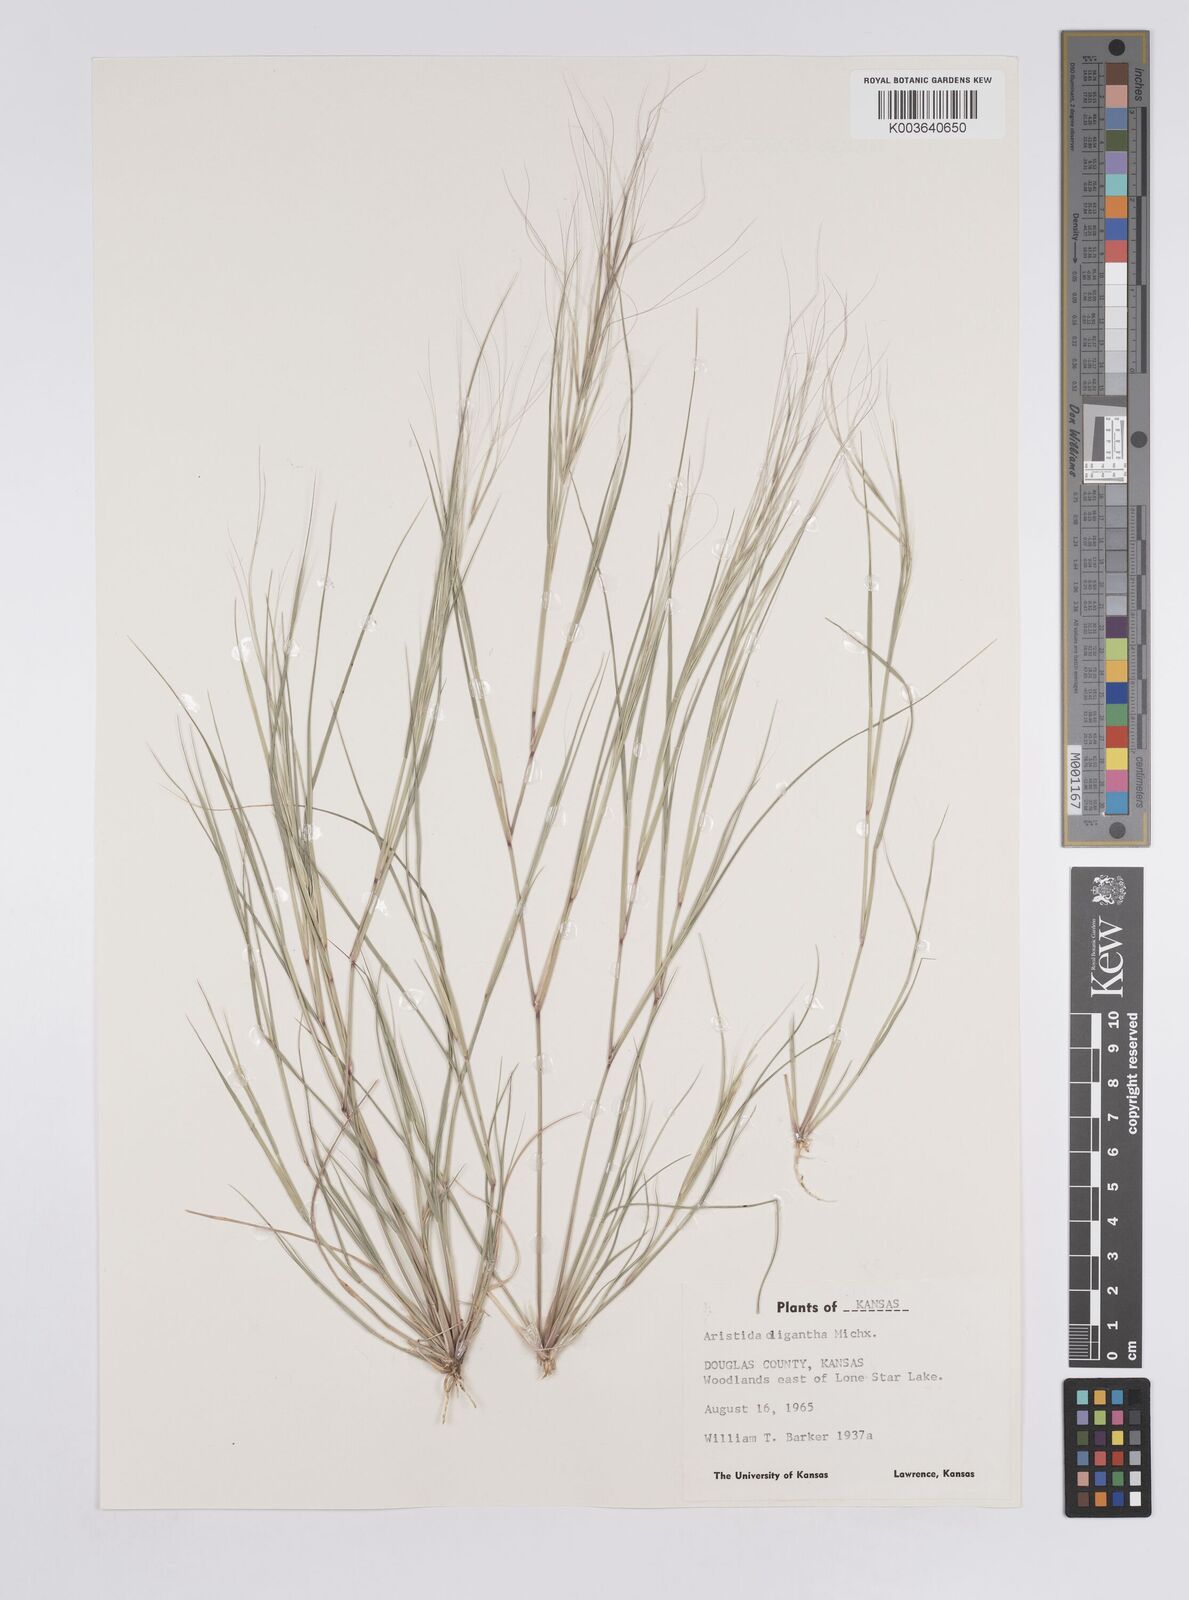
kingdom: Plantae
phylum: Tracheophyta
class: Liliopsida
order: Poales
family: Poaceae
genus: Aristida
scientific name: Aristida oligantha
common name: Few-flowered aristida
